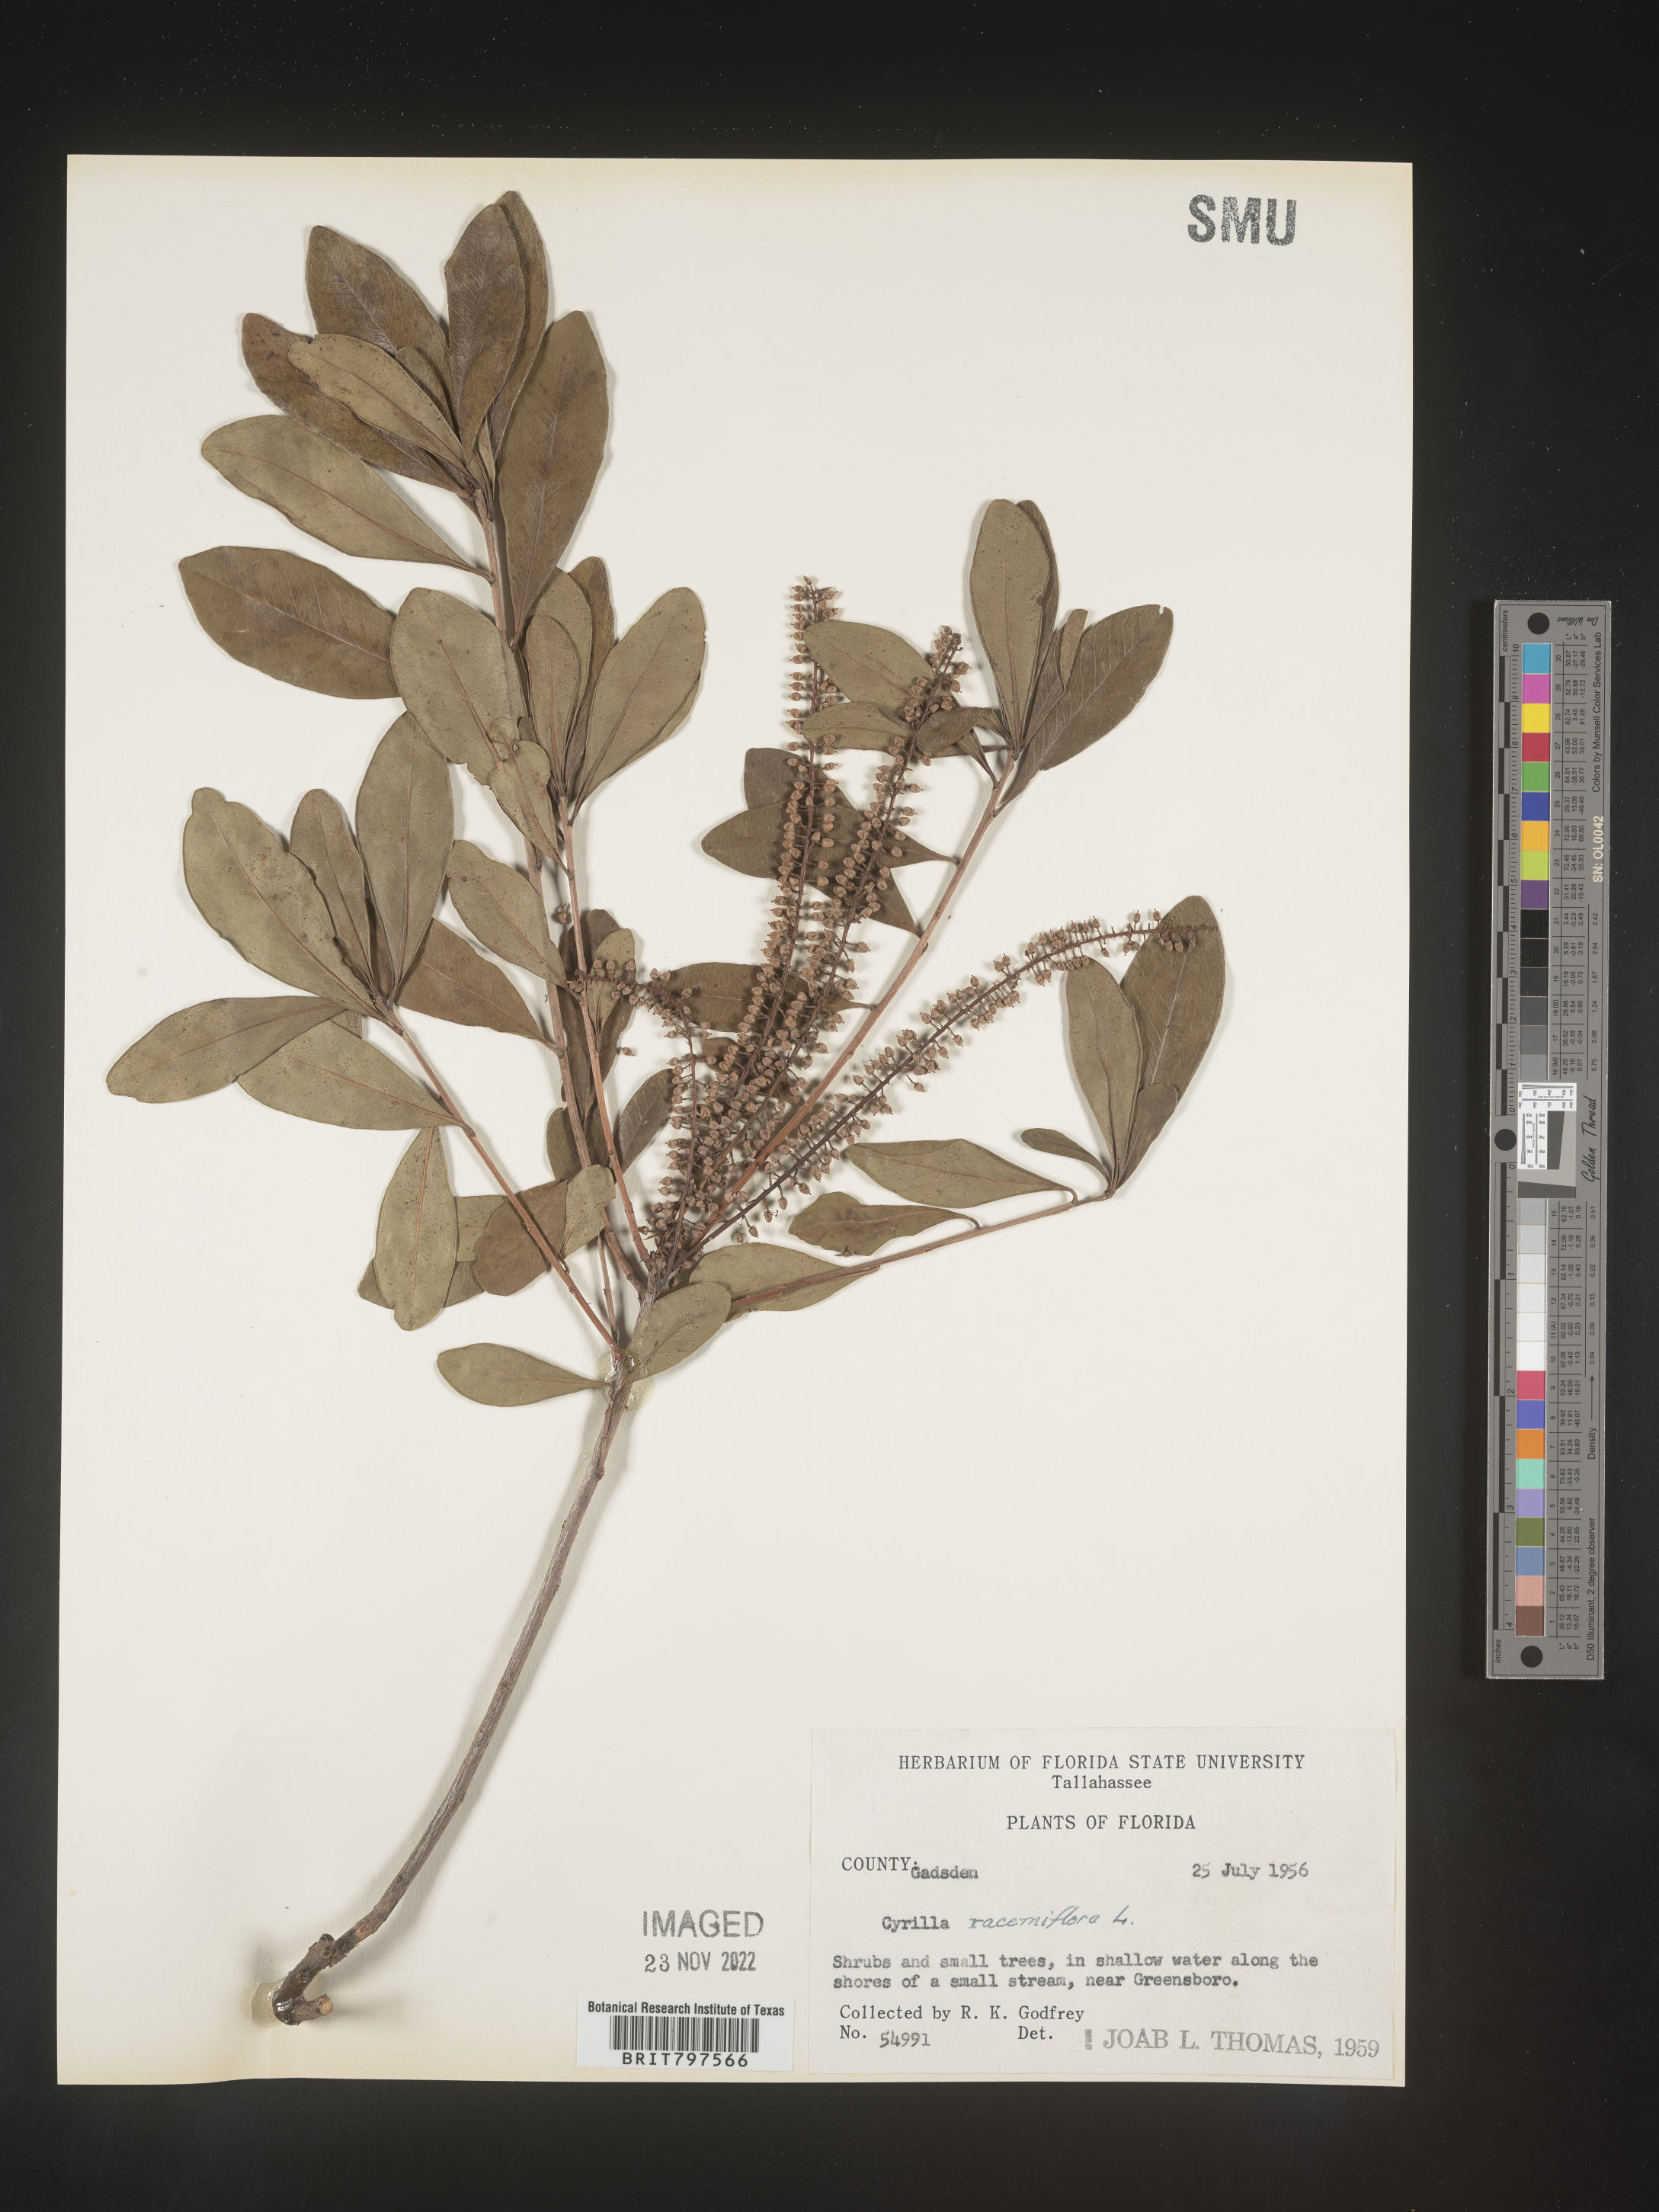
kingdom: Plantae
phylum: Tracheophyta
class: Magnoliopsida
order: Ericales
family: Cyrillaceae
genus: Cyrilla
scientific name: Cyrilla racemiflora
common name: Black titi
